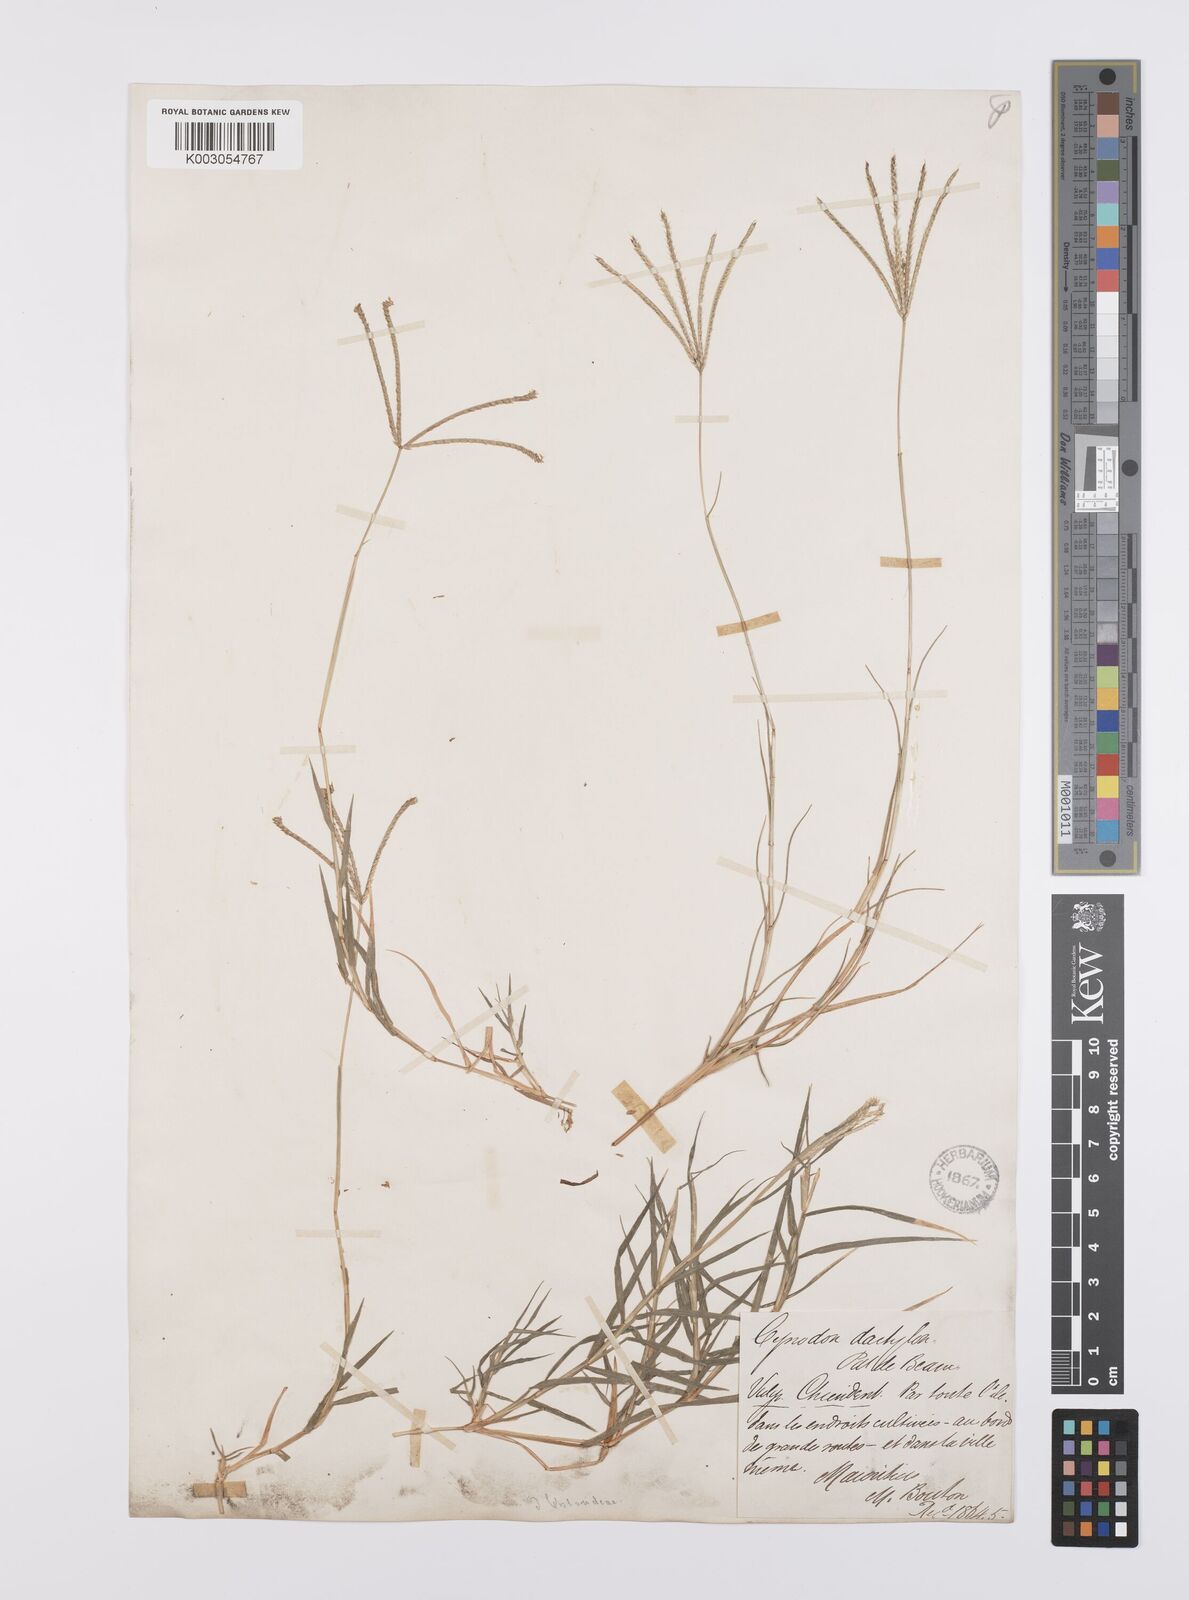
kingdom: Plantae
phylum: Tracheophyta
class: Liliopsida
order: Poales
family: Poaceae
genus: Cynodon
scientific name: Cynodon dactylon
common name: Bermuda grass
